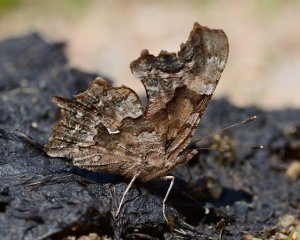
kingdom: Animalia
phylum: Arthropoda
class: Insecta
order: Lepidoptera
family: Nymphalidae
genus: Polygonia
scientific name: Polygonia faunus
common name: Green Comma
